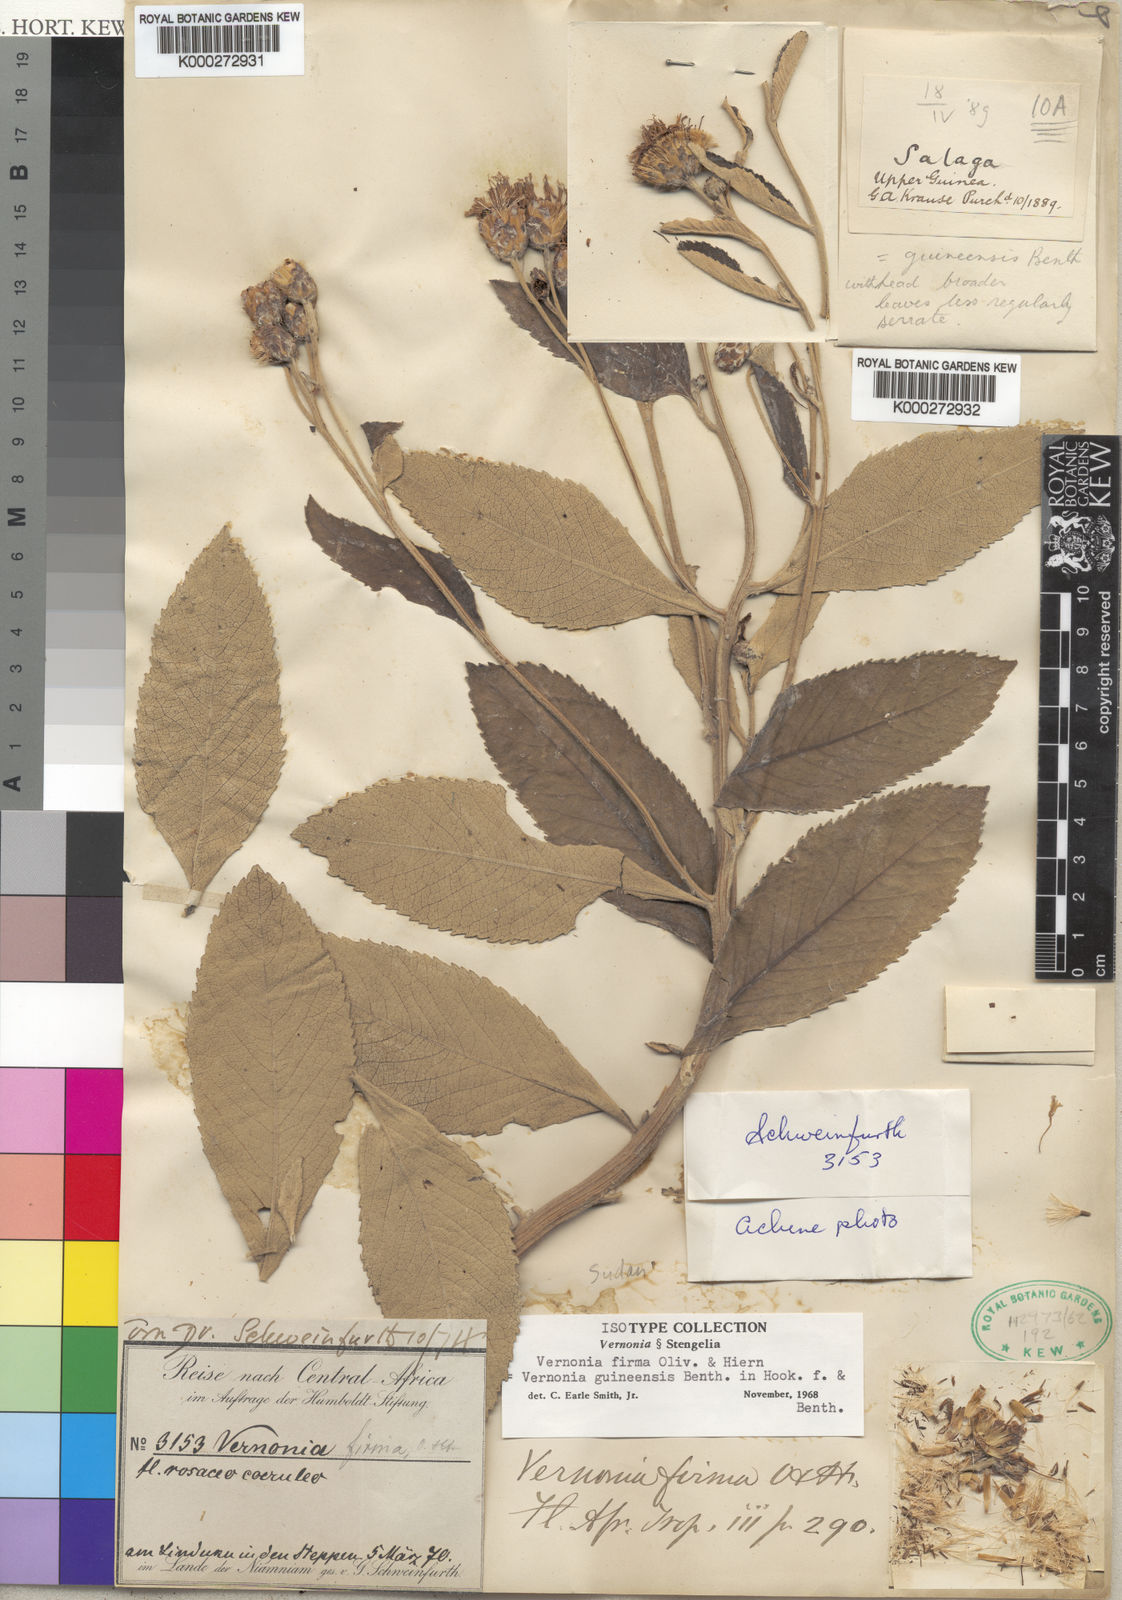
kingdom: Plantae
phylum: Tracheophyta
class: Magnoliopsida
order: Asterales
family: Asteraceae
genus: Baccharoides
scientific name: Baccharoides guineensis
